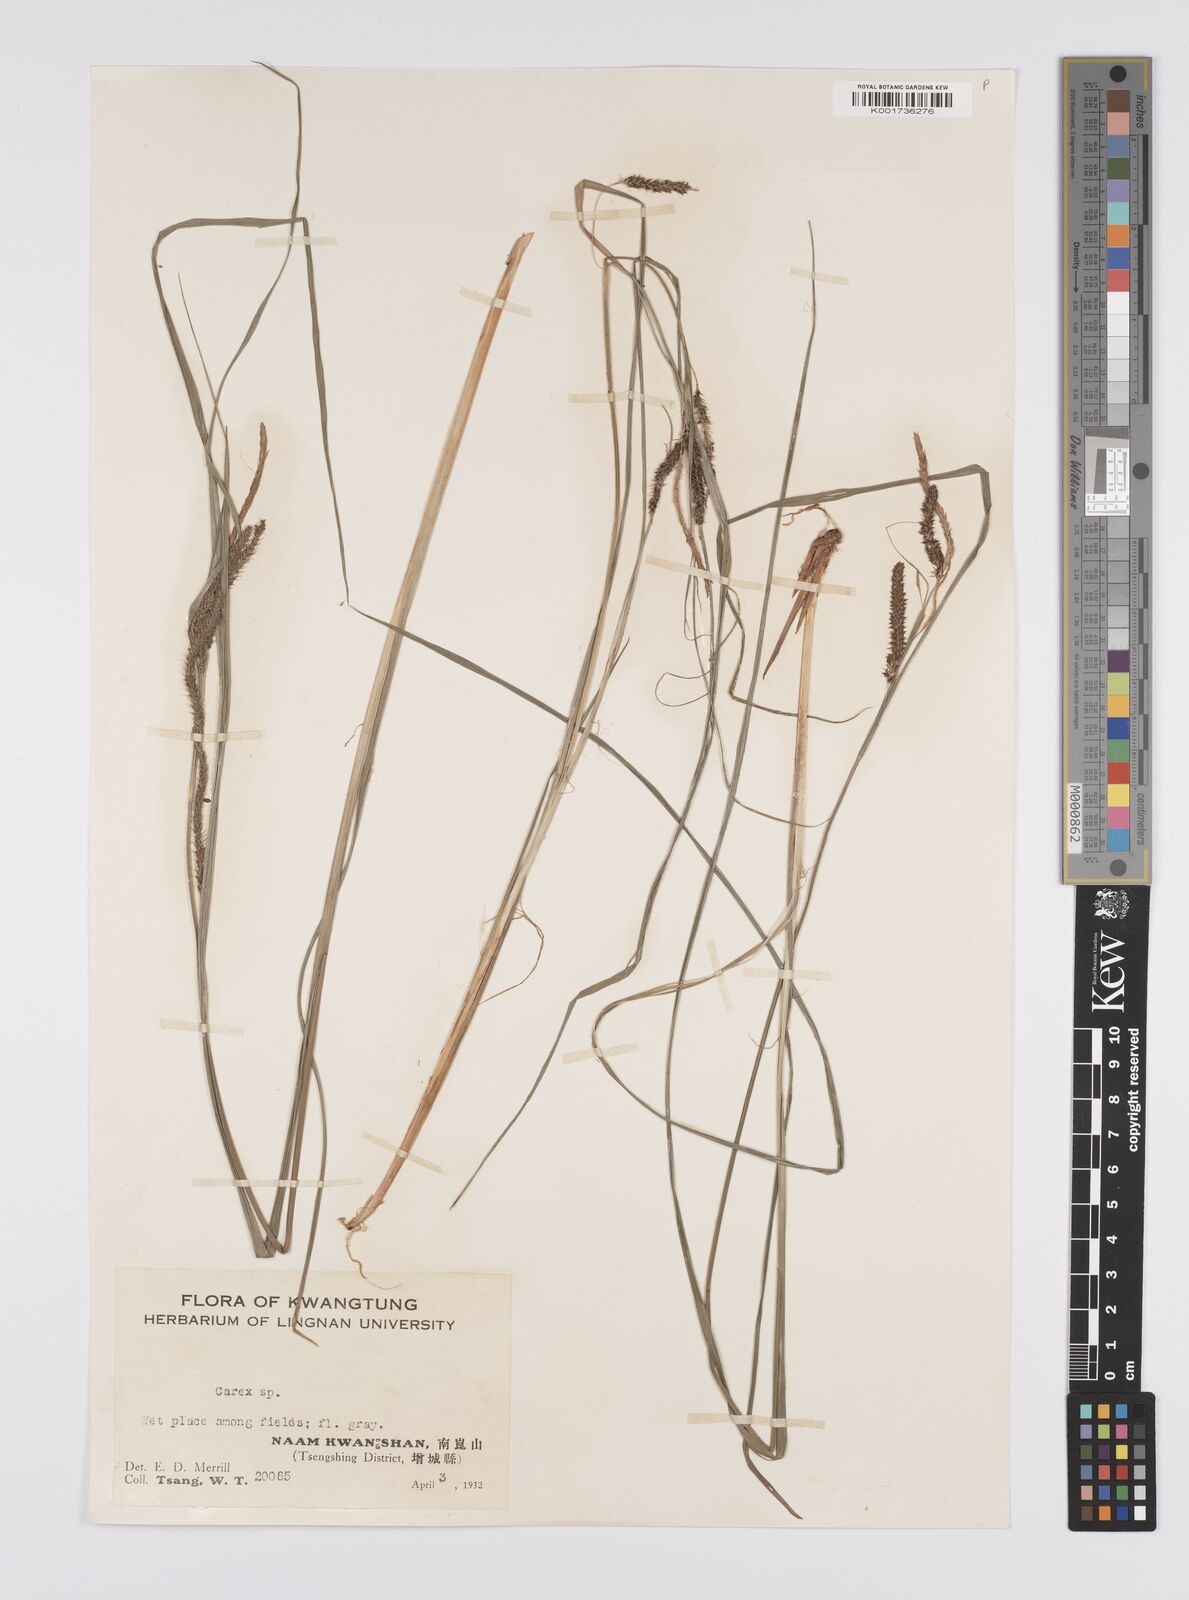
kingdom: Plantae
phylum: Tracheophyta
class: Liliopsida
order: Poales
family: Cyperaceae
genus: Carex
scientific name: Carex phacota
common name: Lakeshore sedge
